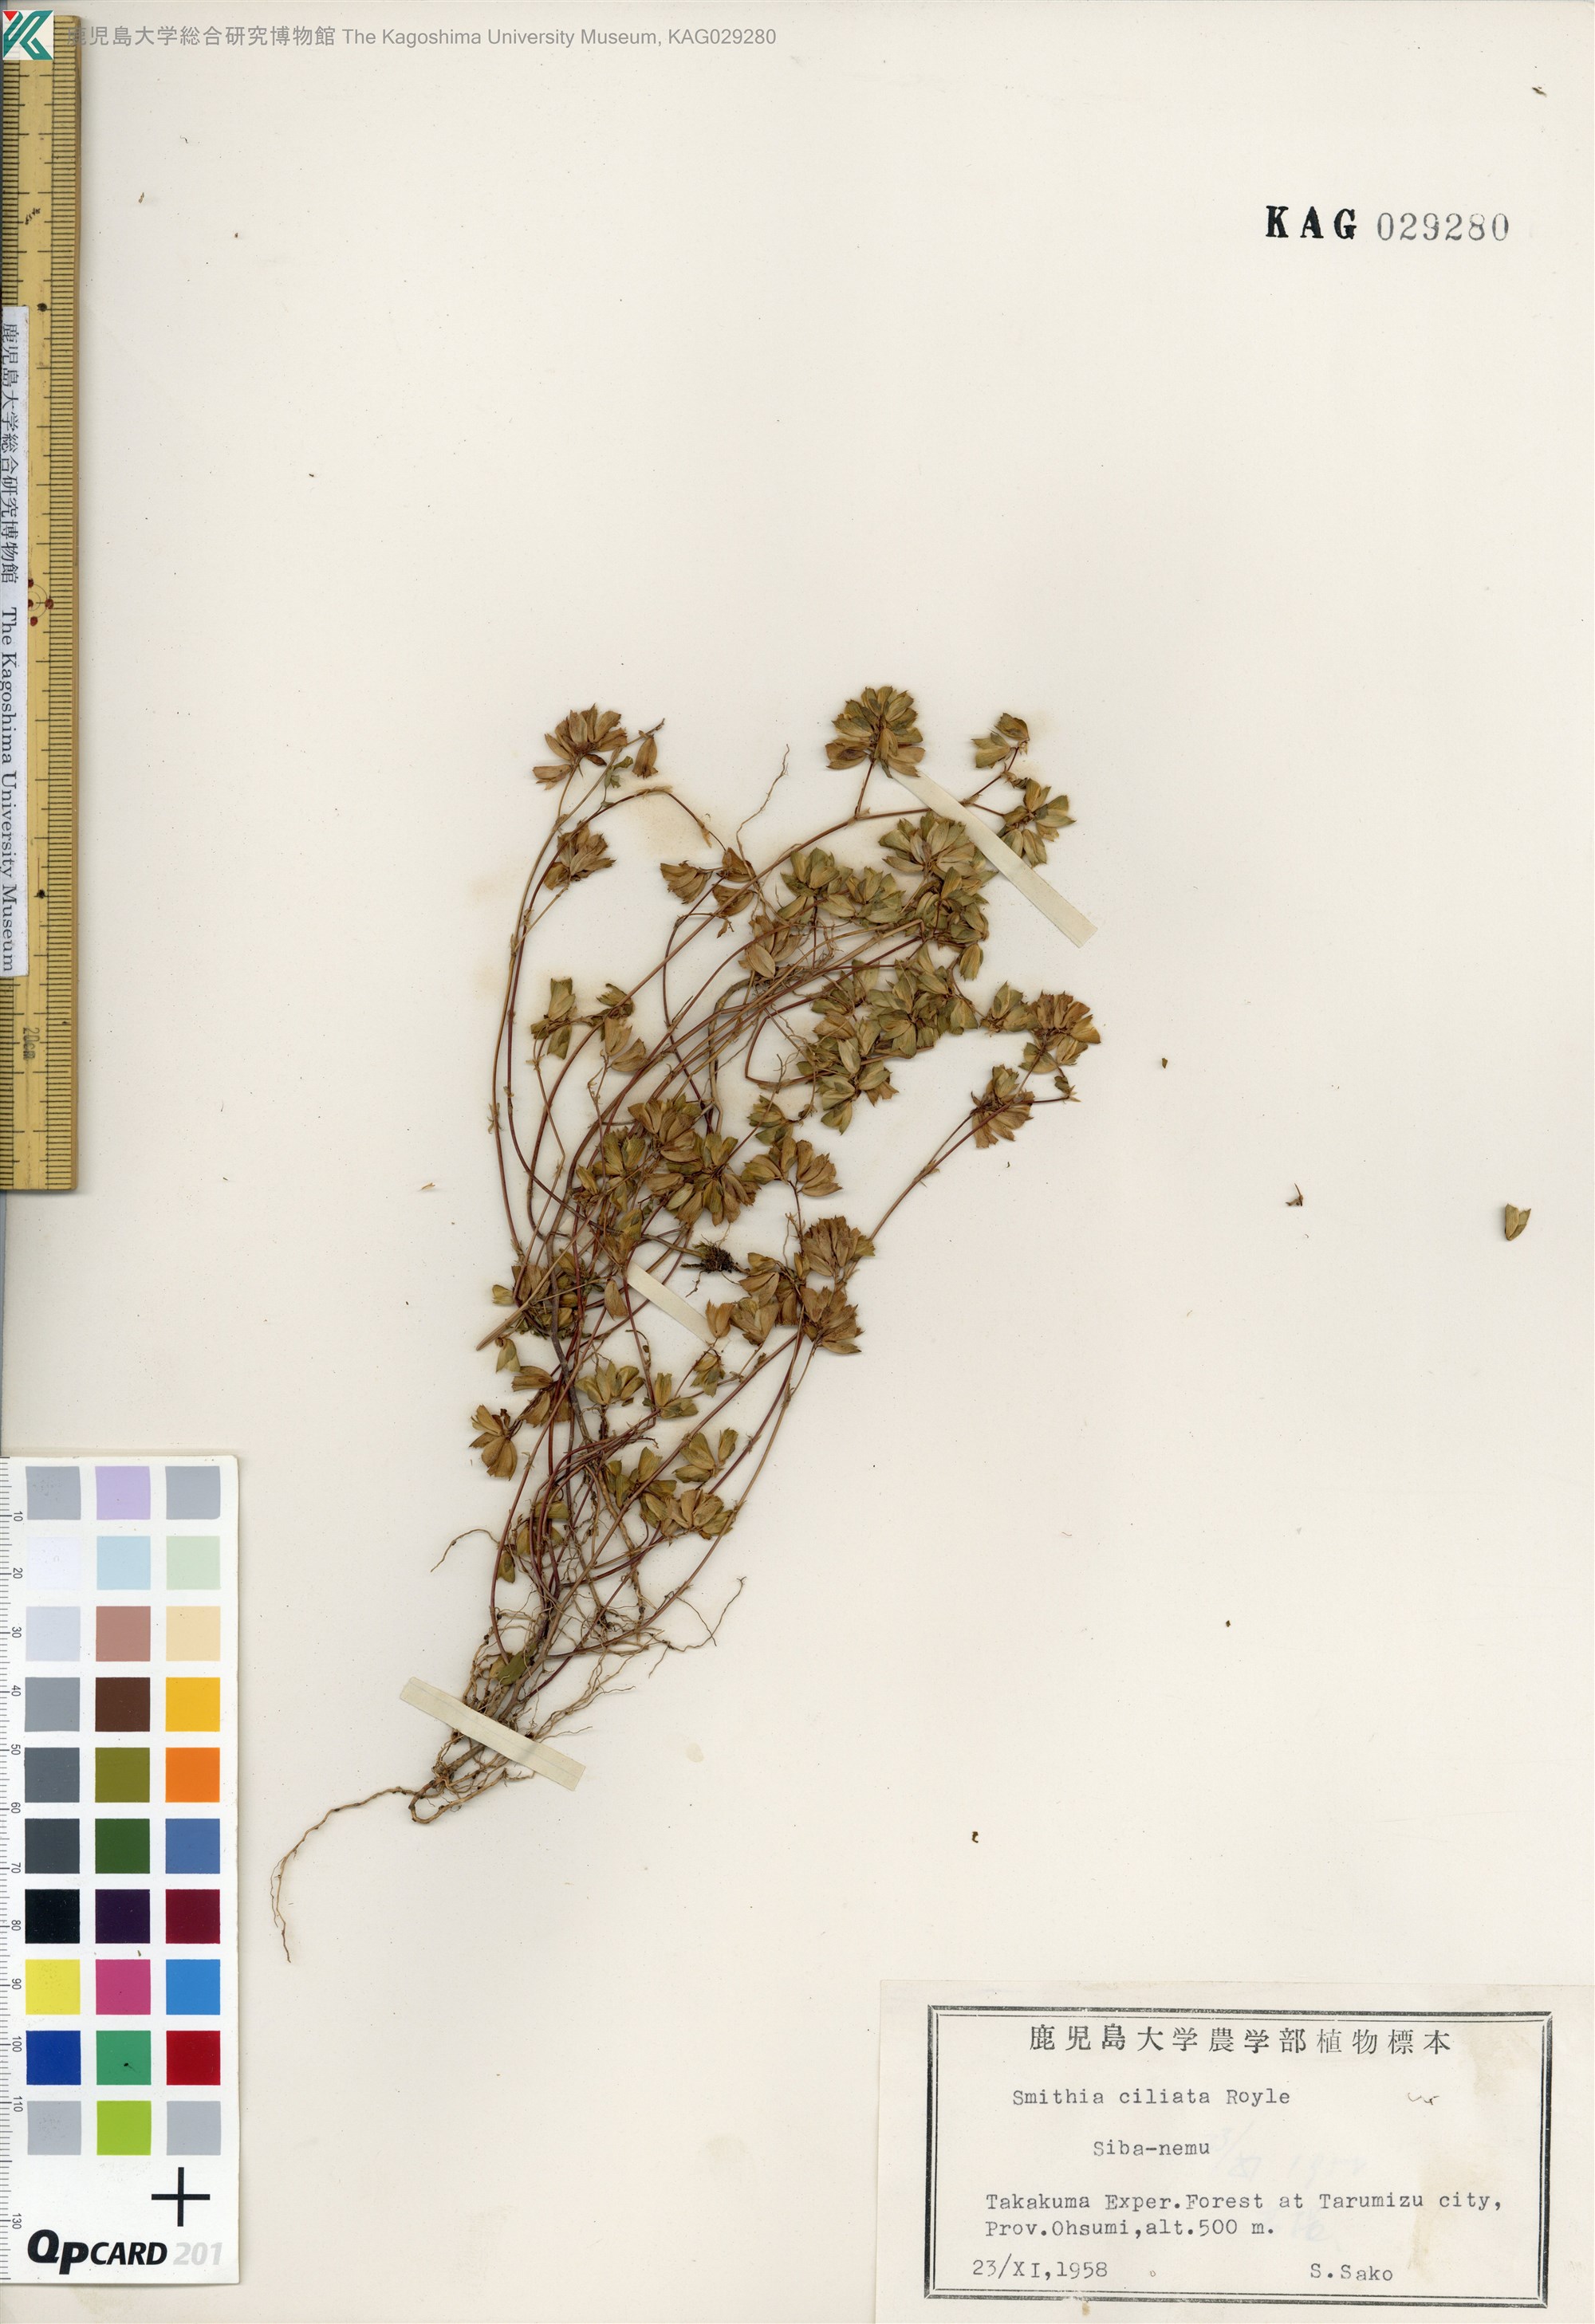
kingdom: Plantae
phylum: Tracheophyta
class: Magnoliopsida
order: Fabales
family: Fabaceae
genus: Smithia
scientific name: Smithia ciliata
